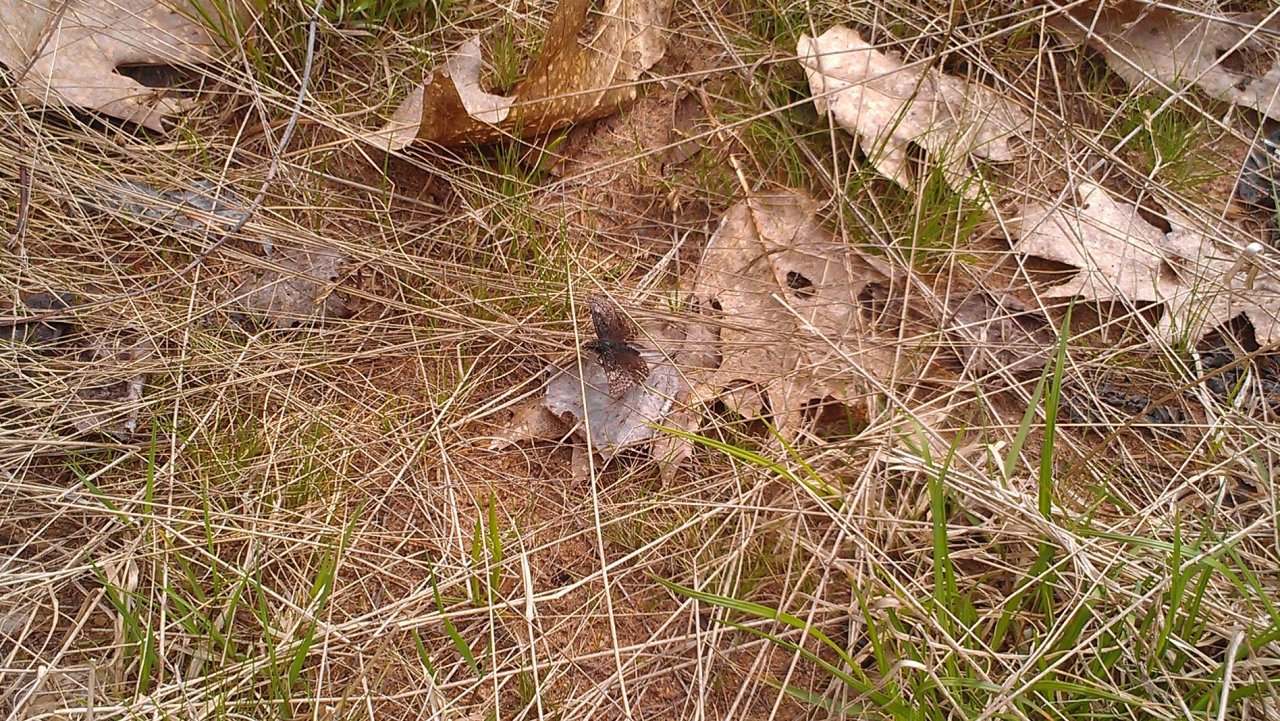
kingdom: Animalia
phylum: Arthropoda
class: Insecta
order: Lepidoptera
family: Hesperiidae
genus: Erynnis
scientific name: Erynnis icelus
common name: Dreamy Duskywing
